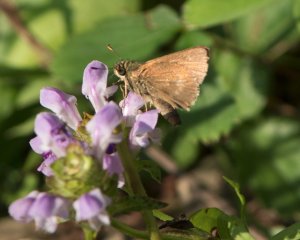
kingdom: Animalia
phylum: Arthropoda
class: Insecta
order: Lepidoptera
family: Hesperiidae
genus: Euphyes
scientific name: Euphyes vestris
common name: Dun Skipper
